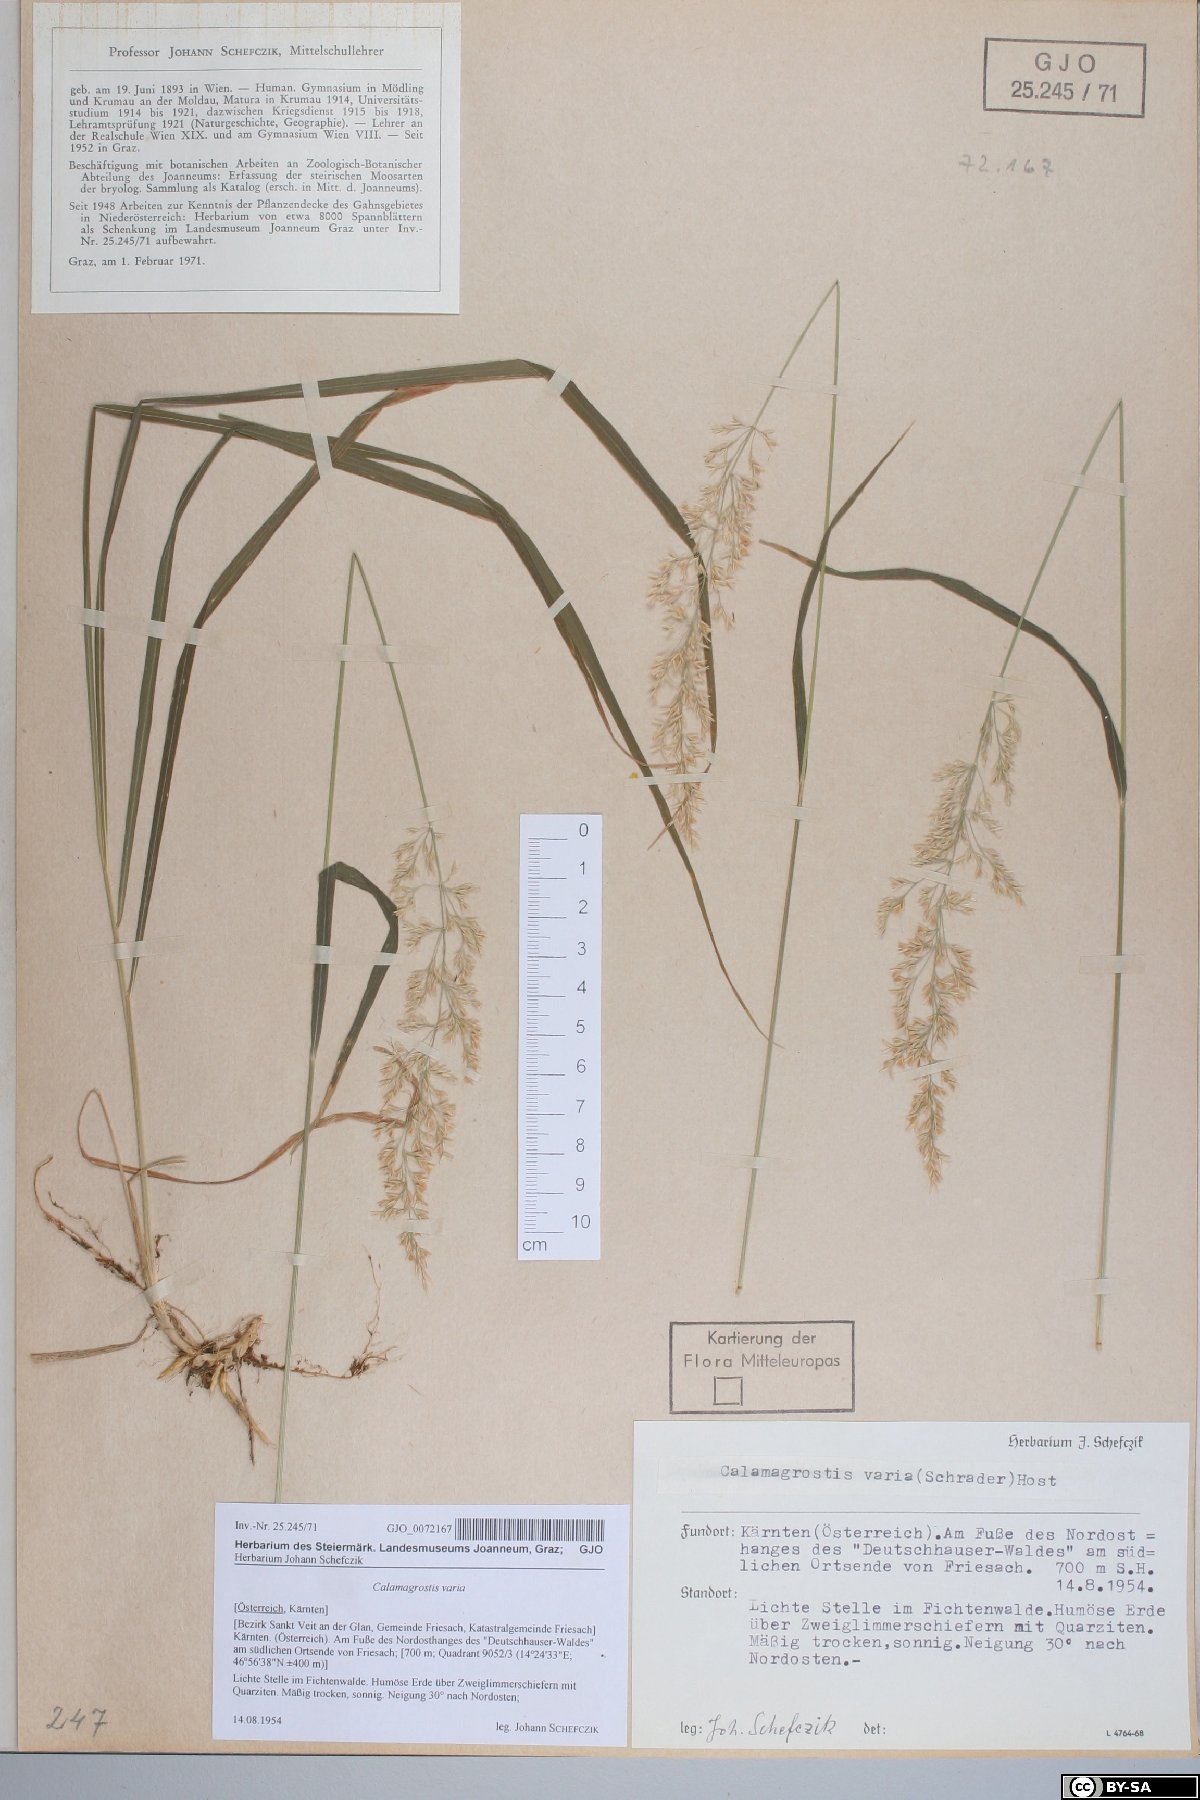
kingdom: Plantae
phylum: Tracheophyta
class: Liliopsida
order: Poales
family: Poaceae
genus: Calamagrostis
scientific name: Calamagrostis varia
